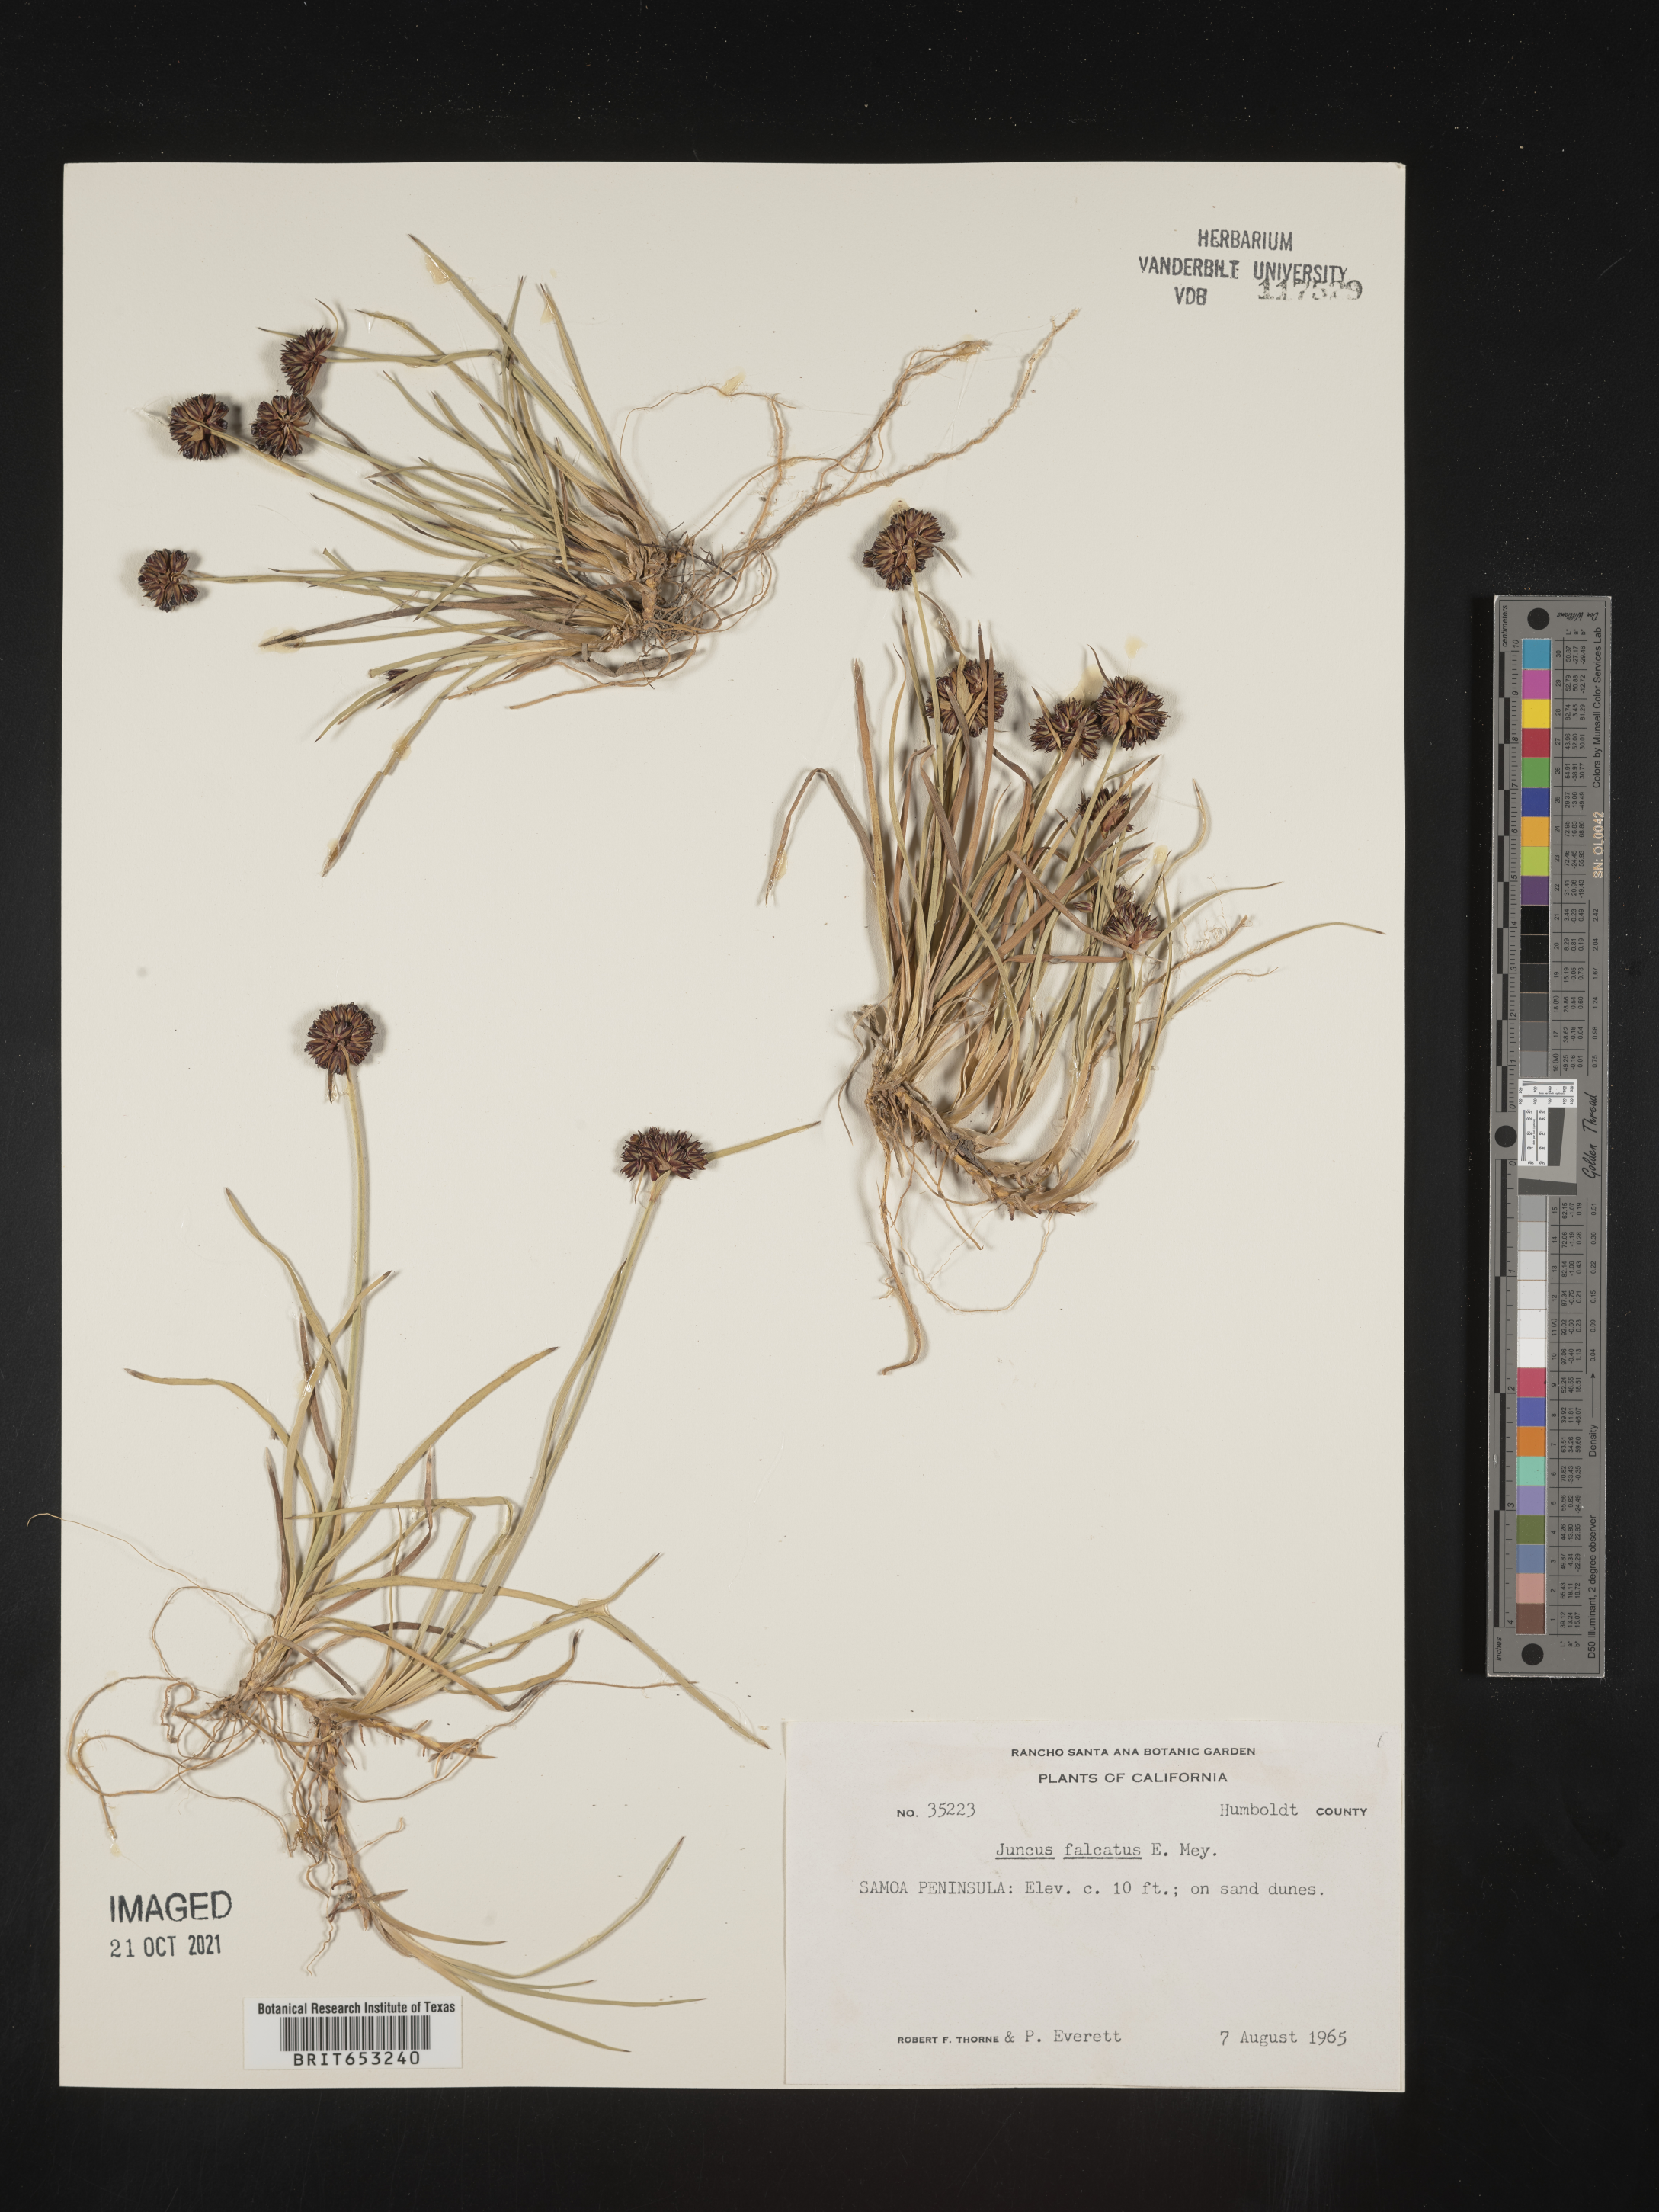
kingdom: Plantae
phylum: Tracheophyta
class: Liliopsida
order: Poales
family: Juncaceae
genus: Juncus
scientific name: Juncus falcatus
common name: Sickle-leaf rush
